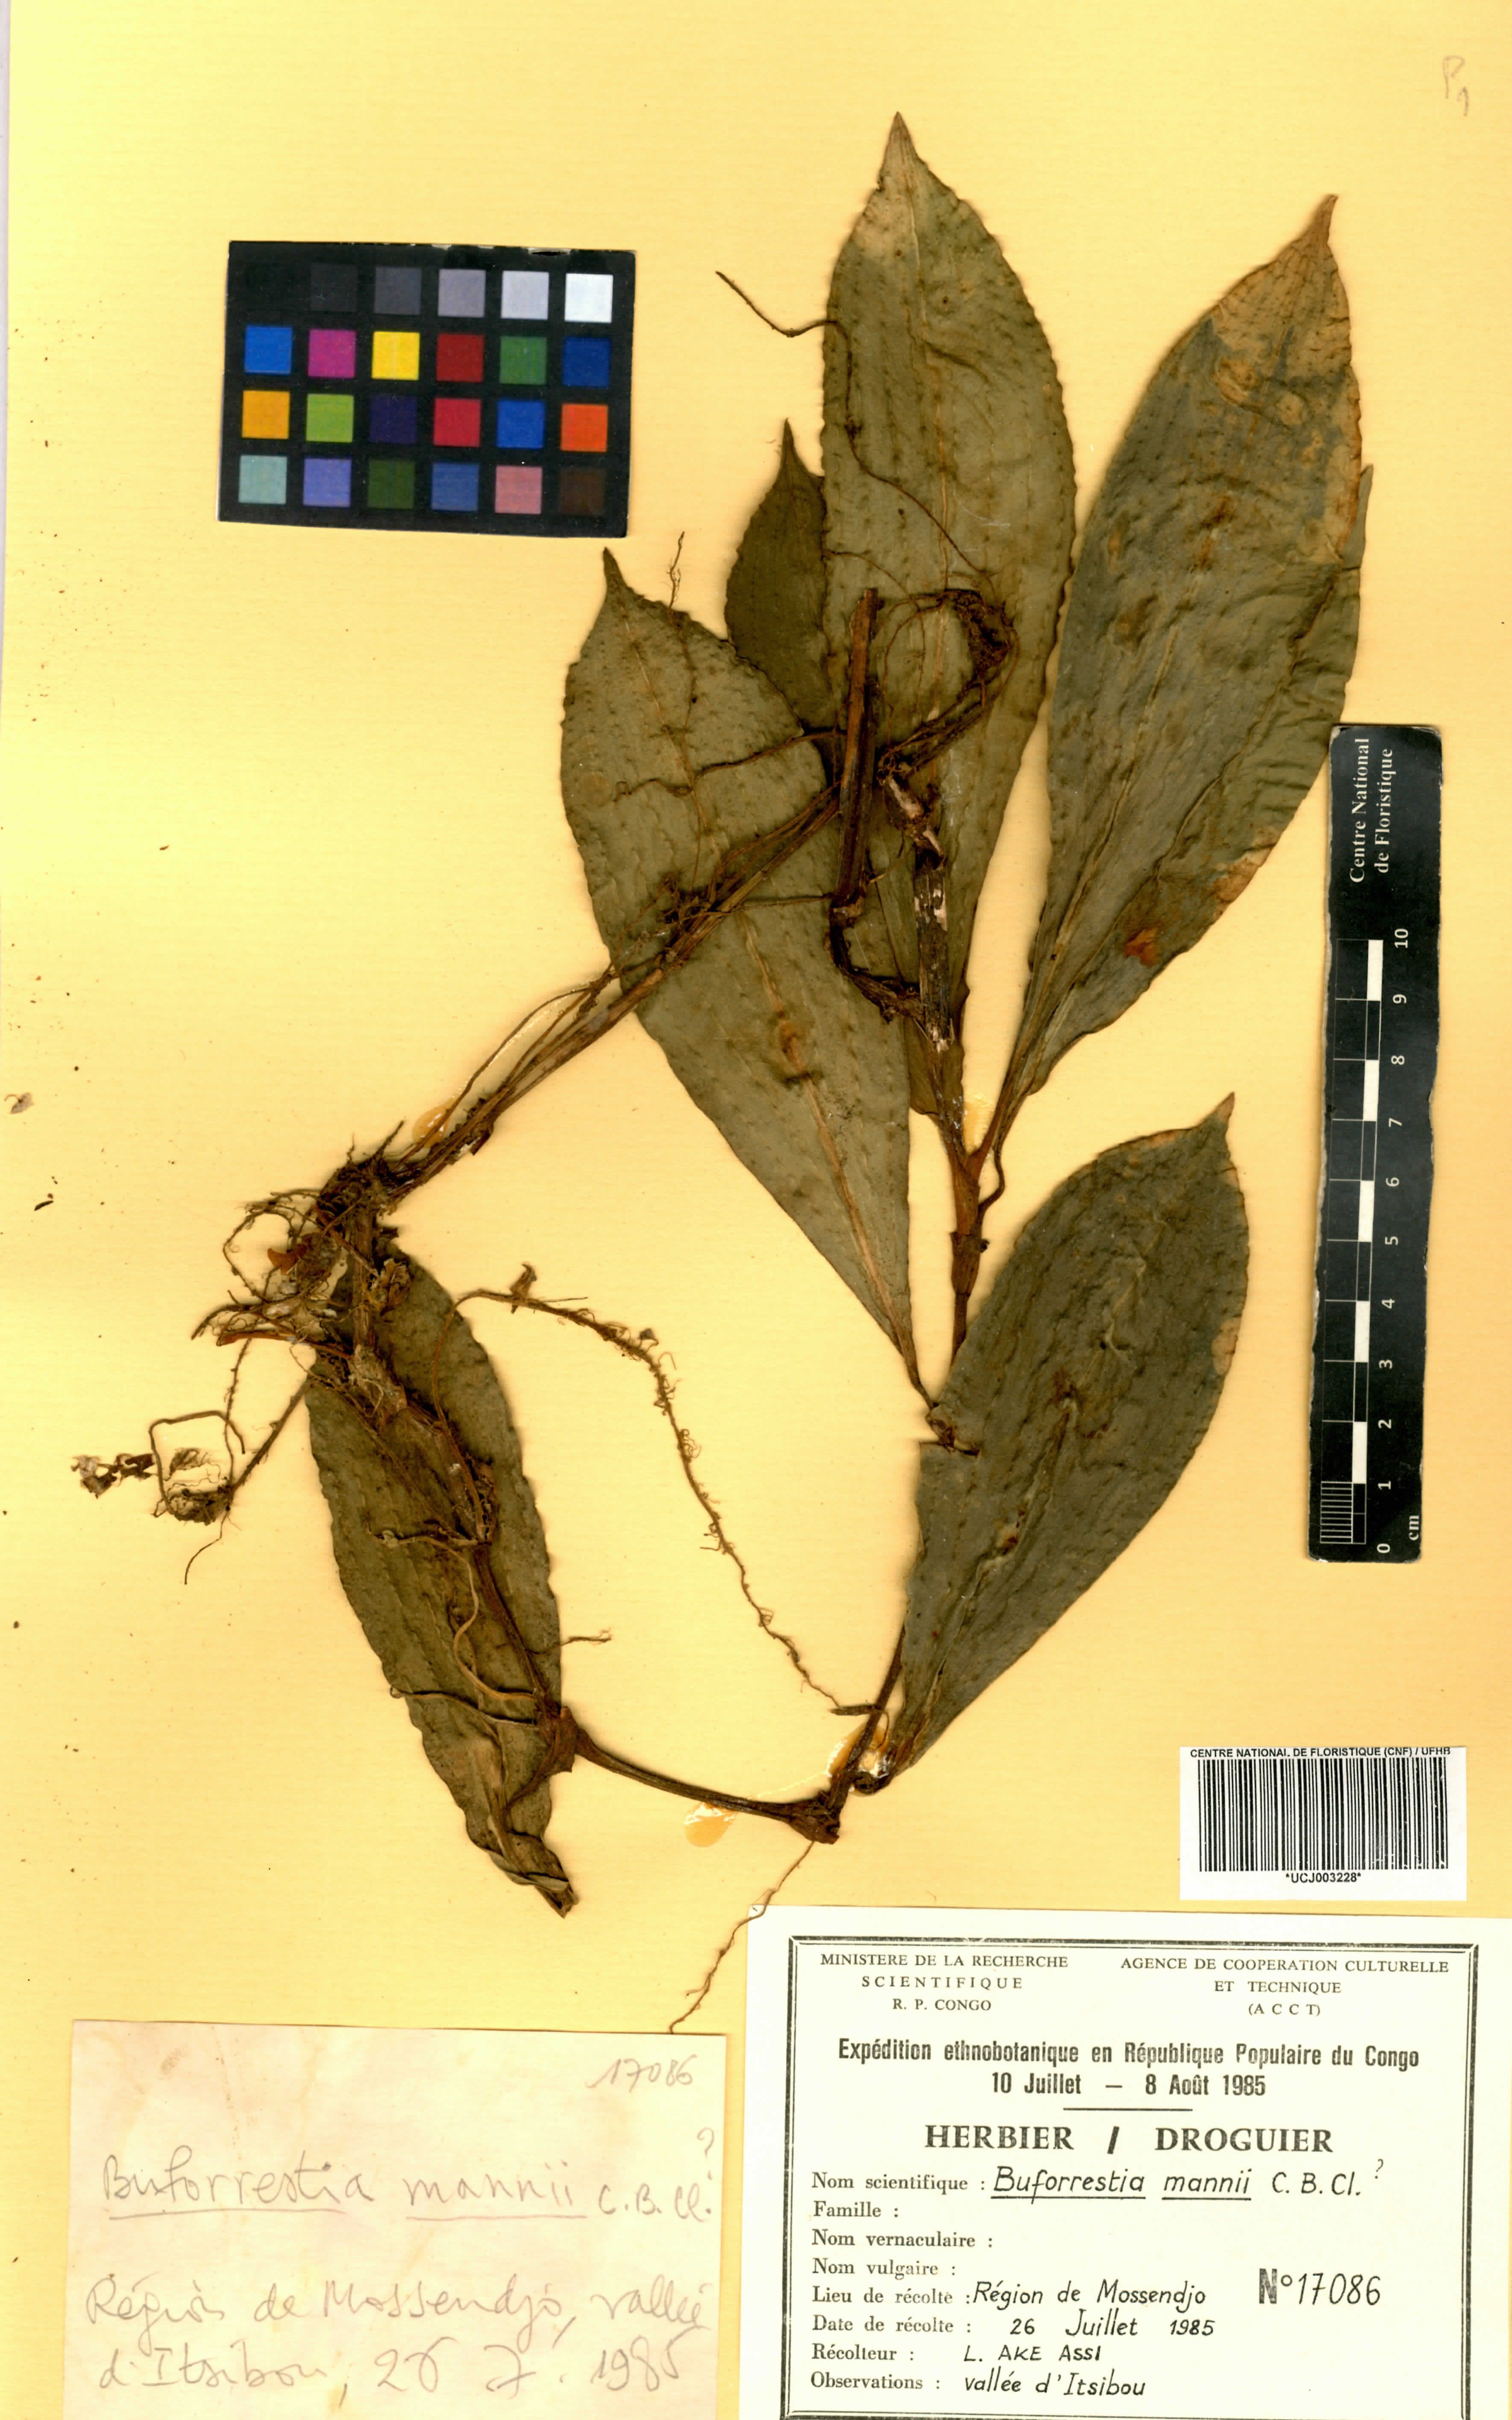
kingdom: Plantae
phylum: Tracheophyta
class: Liliopsida
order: Commelinales
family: Commelinaceae
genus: Buforrestia
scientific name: Buforrestia mannii
